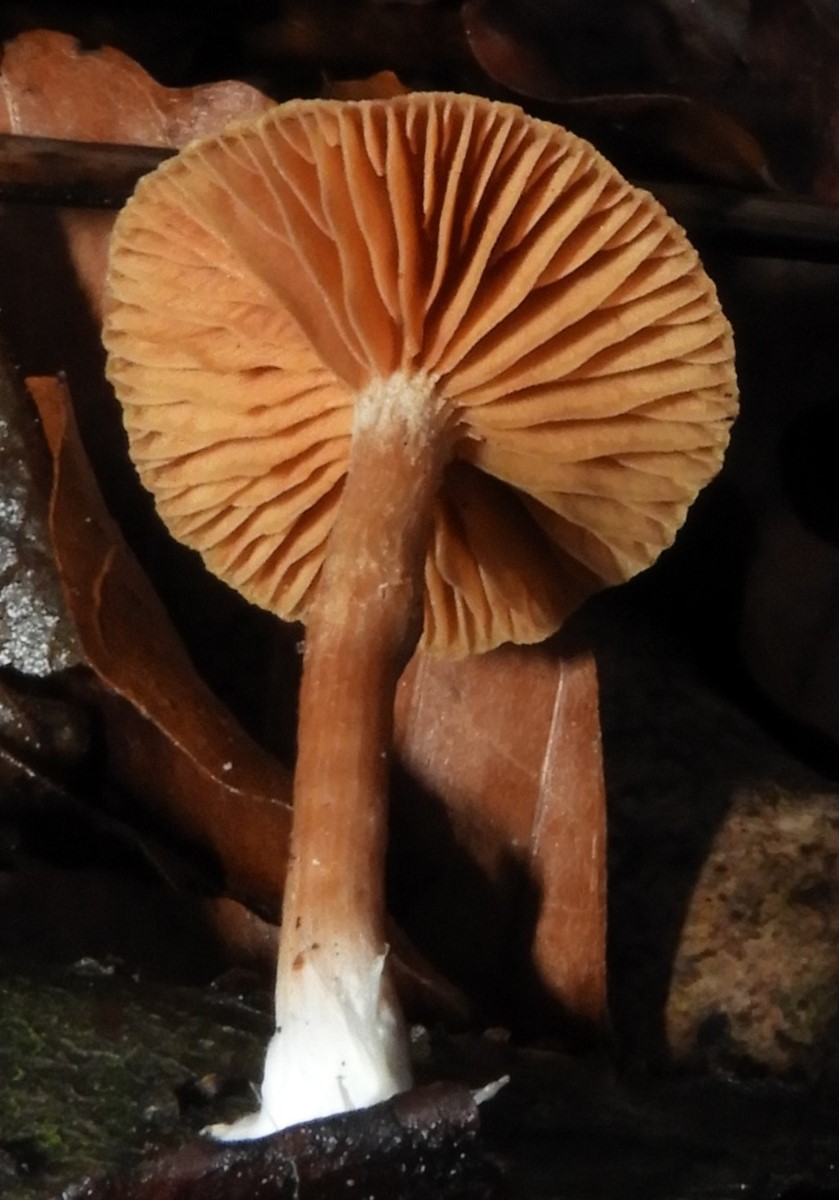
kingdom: Fungi
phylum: Basidiomycota
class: Agaricomycetes
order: Agaricales
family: Tubariaceae
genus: Tubaria
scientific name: Tubaria furfuracea
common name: kliddet fnughat
